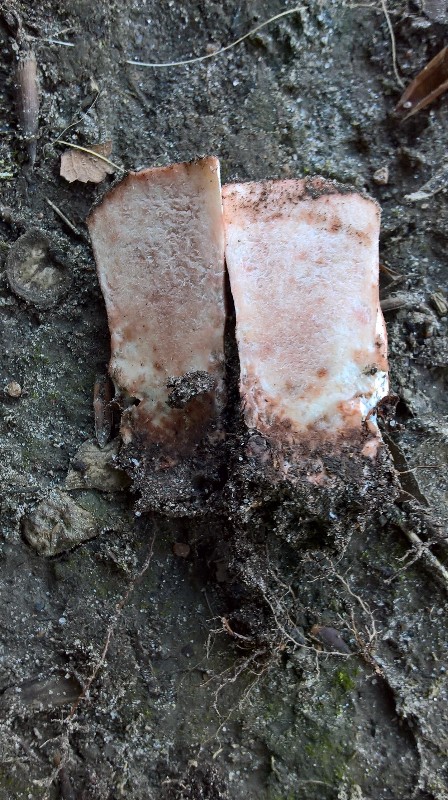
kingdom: Fungi
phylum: Basidiomycota
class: Agaricomycetes
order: Russulales
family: Russulaceae
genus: Russula
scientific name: Russula adusta
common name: sværtende skørhat
